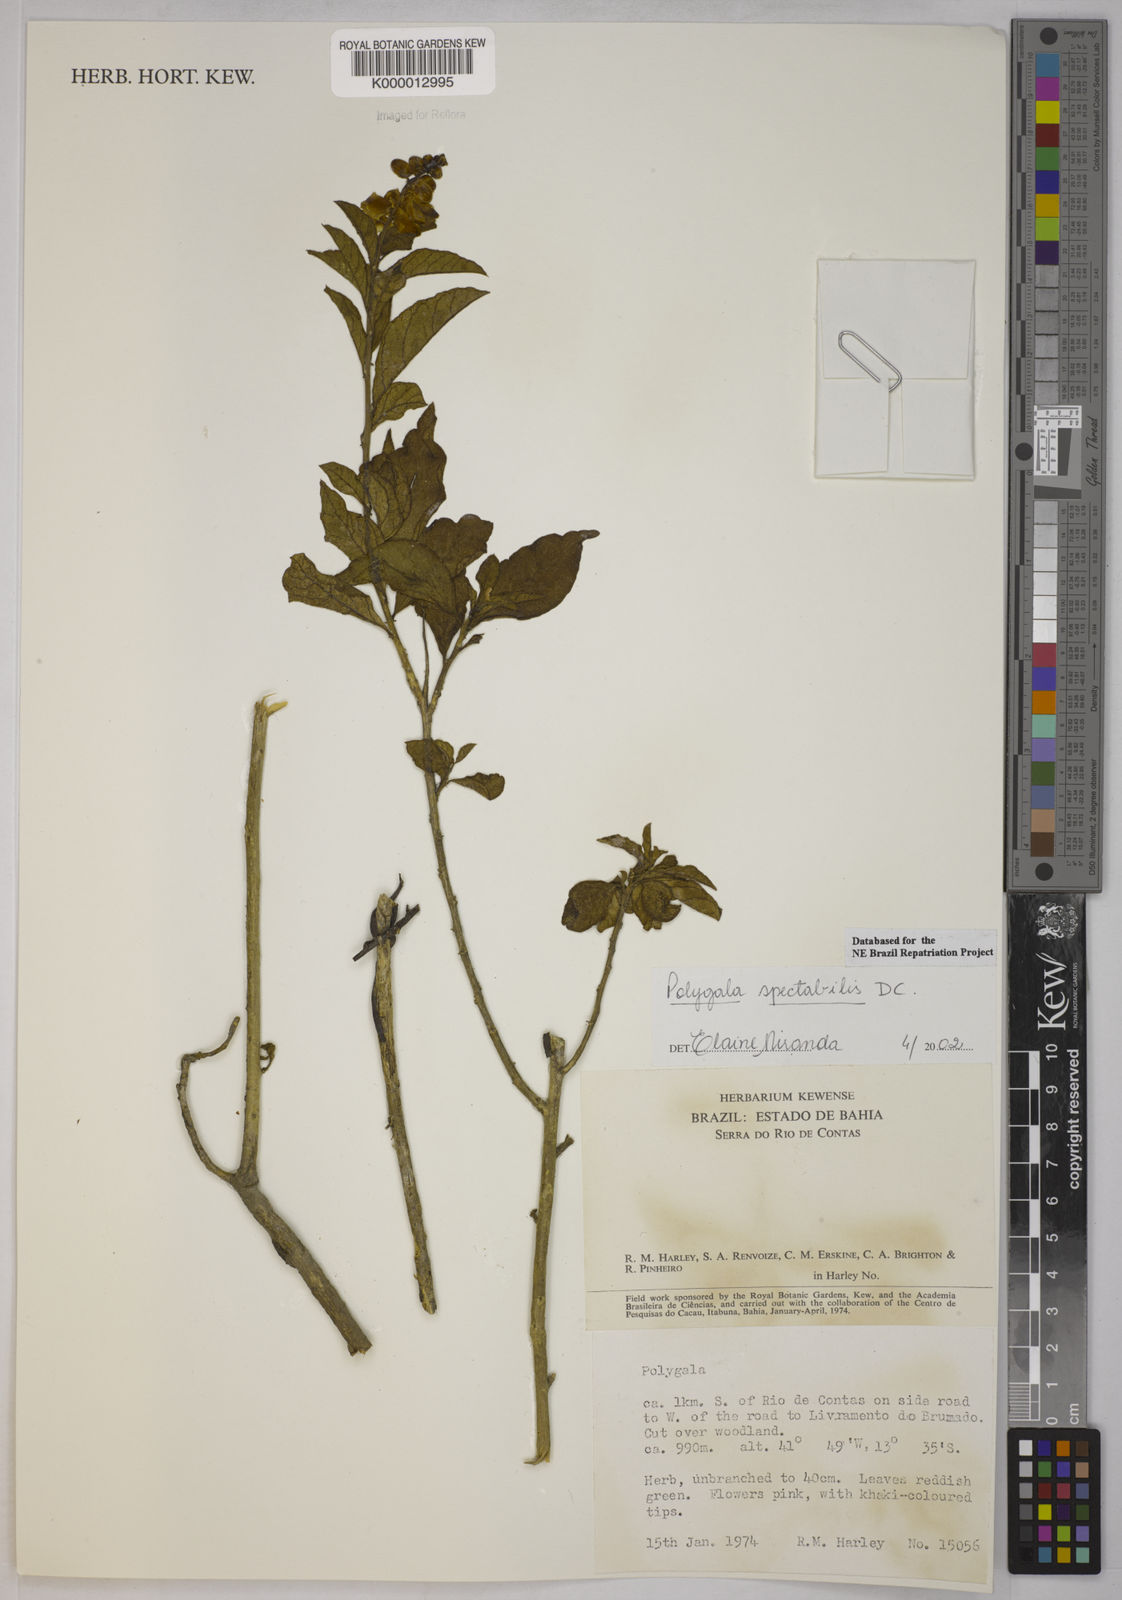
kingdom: Plantae
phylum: Tracheophyta
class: Magnoliopsida
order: Fabales
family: Polygalaceae
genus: Caamembeca
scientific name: Caamembeca spectabilis
